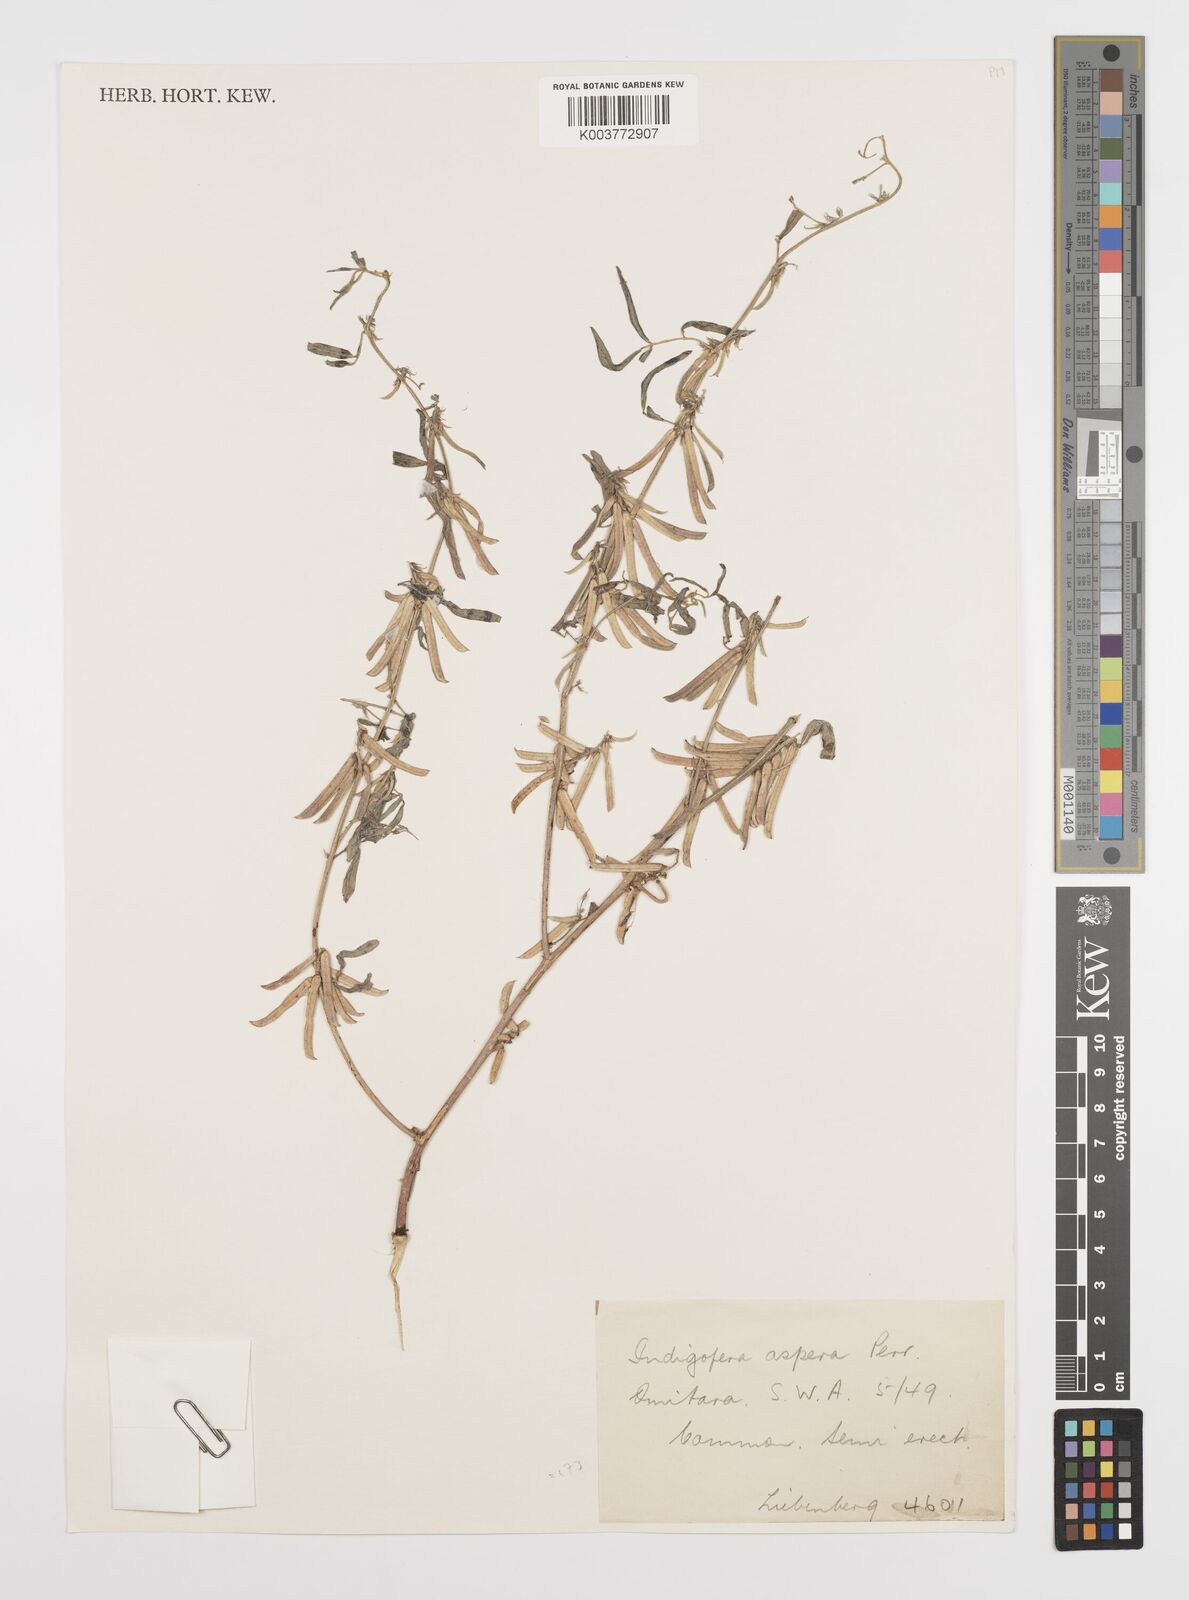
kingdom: Plantae
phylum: Tracheophyta
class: Magnoliopsida
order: Fabales
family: Fabaceae
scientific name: Fabaceae
